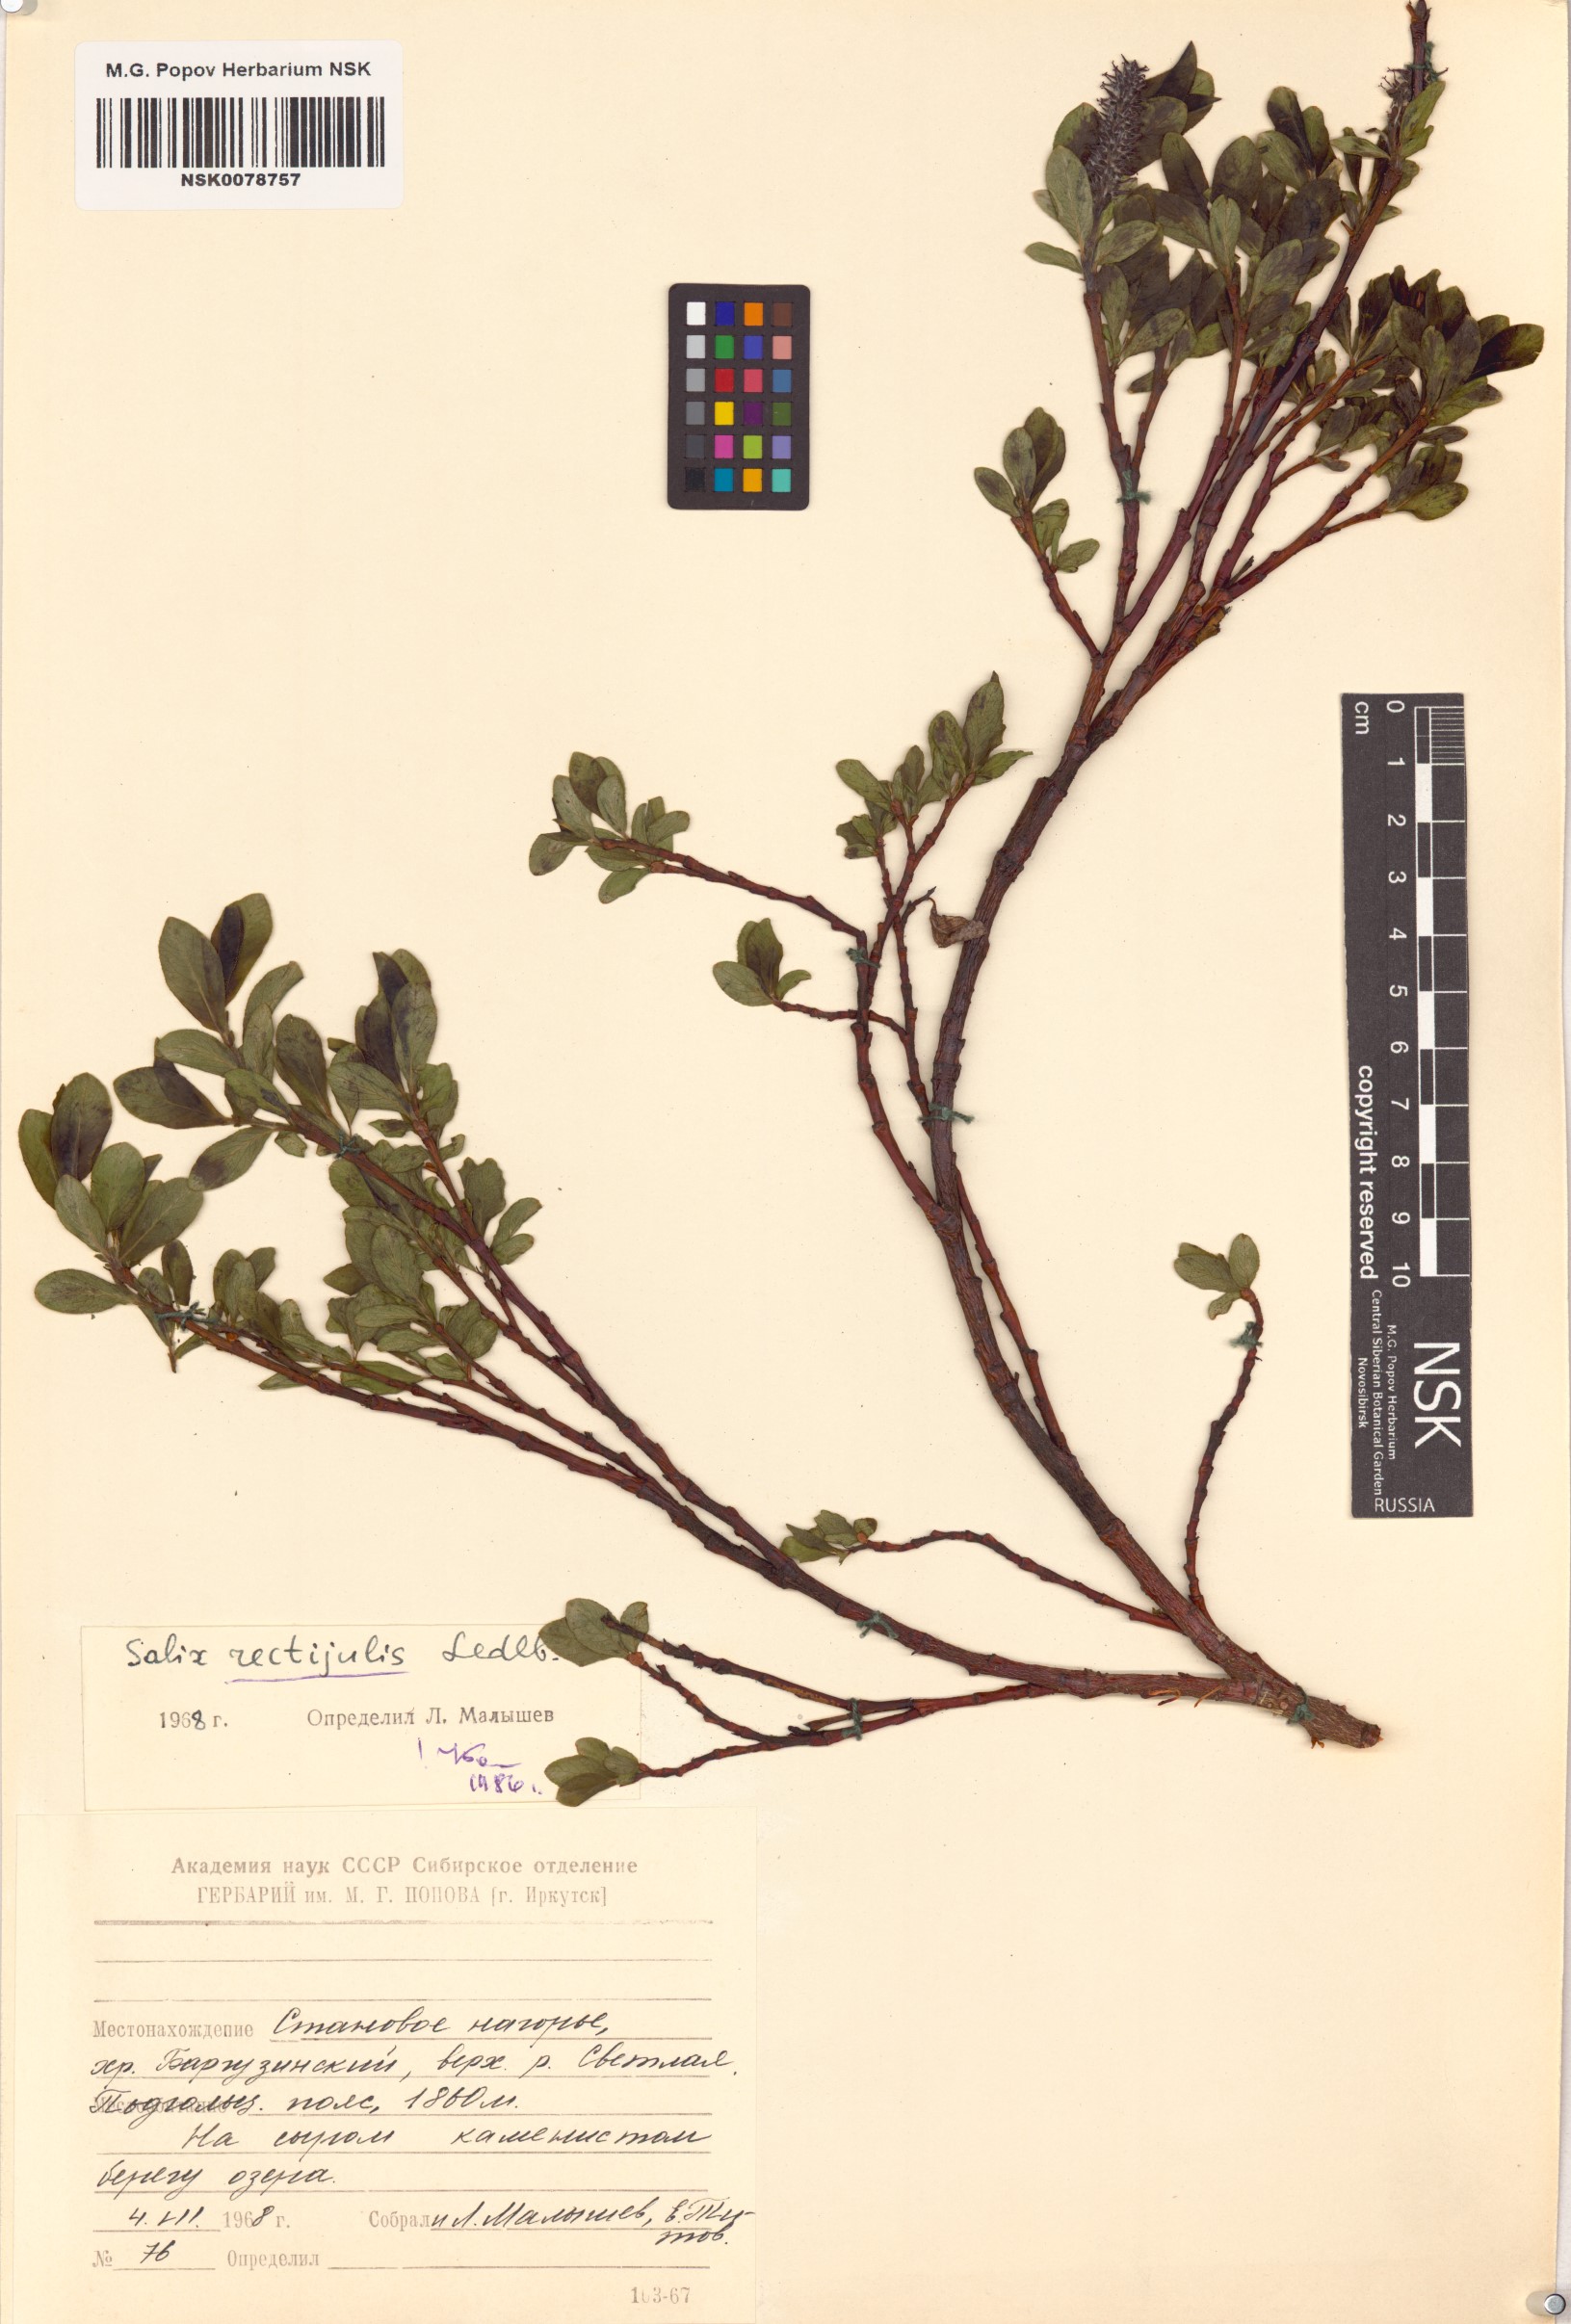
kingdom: Plantae
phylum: Tracheophyta
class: Magnoliopsida
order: Malpighiales
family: Salicaceae
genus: Salix
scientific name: Salix rectijulis
